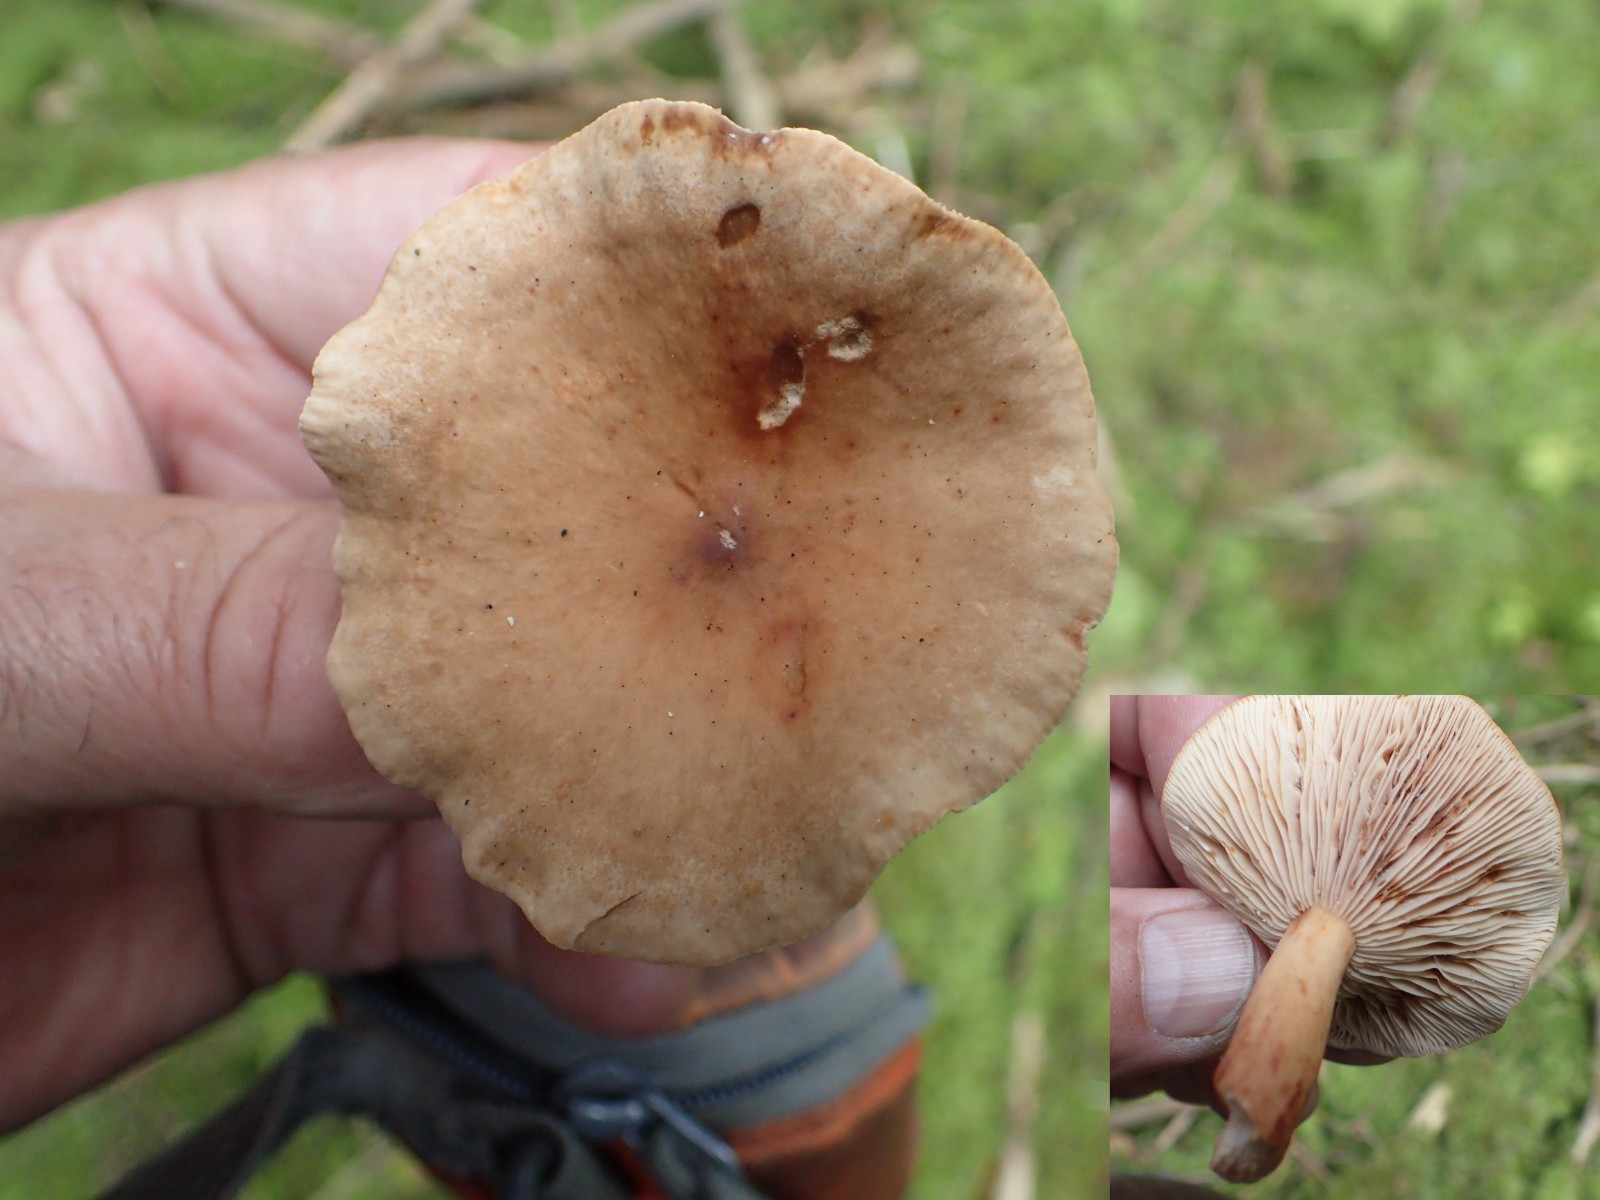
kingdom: Fungi
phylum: Basidiomycota
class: Agaricomycetes
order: Russulales
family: Russulaceae
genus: Lactarius
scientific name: Lactarius tabidus
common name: rynket mælkehat
